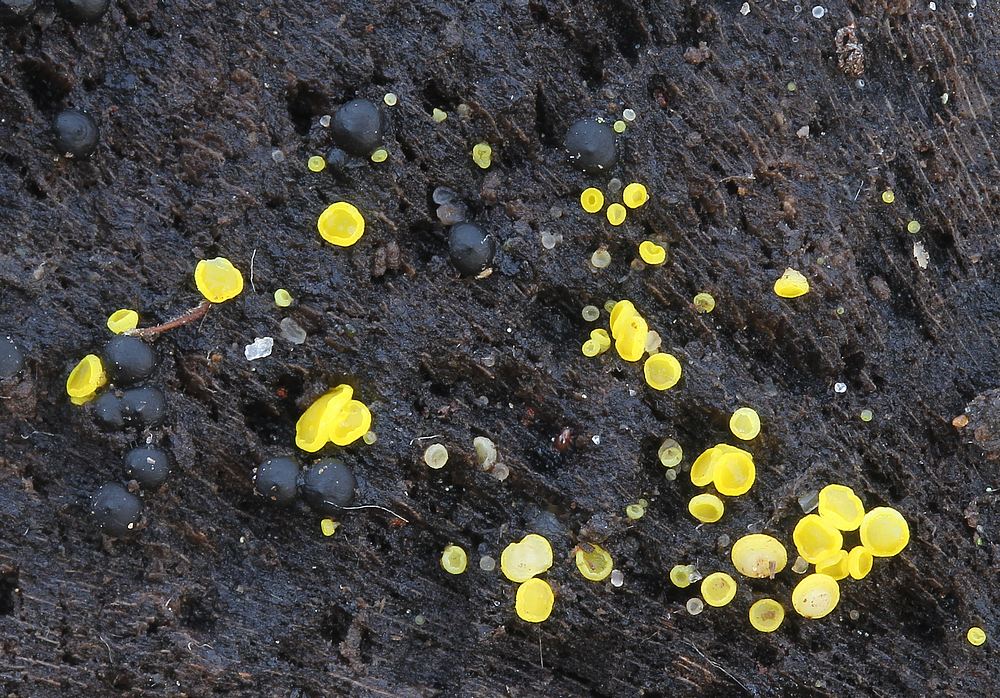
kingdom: Fungi
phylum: Ascomycota
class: Leotiomycetes
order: Helotiales
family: Pezizellaceae
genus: Calycina
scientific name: Calycina claroflava
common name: snyltende gulskive
